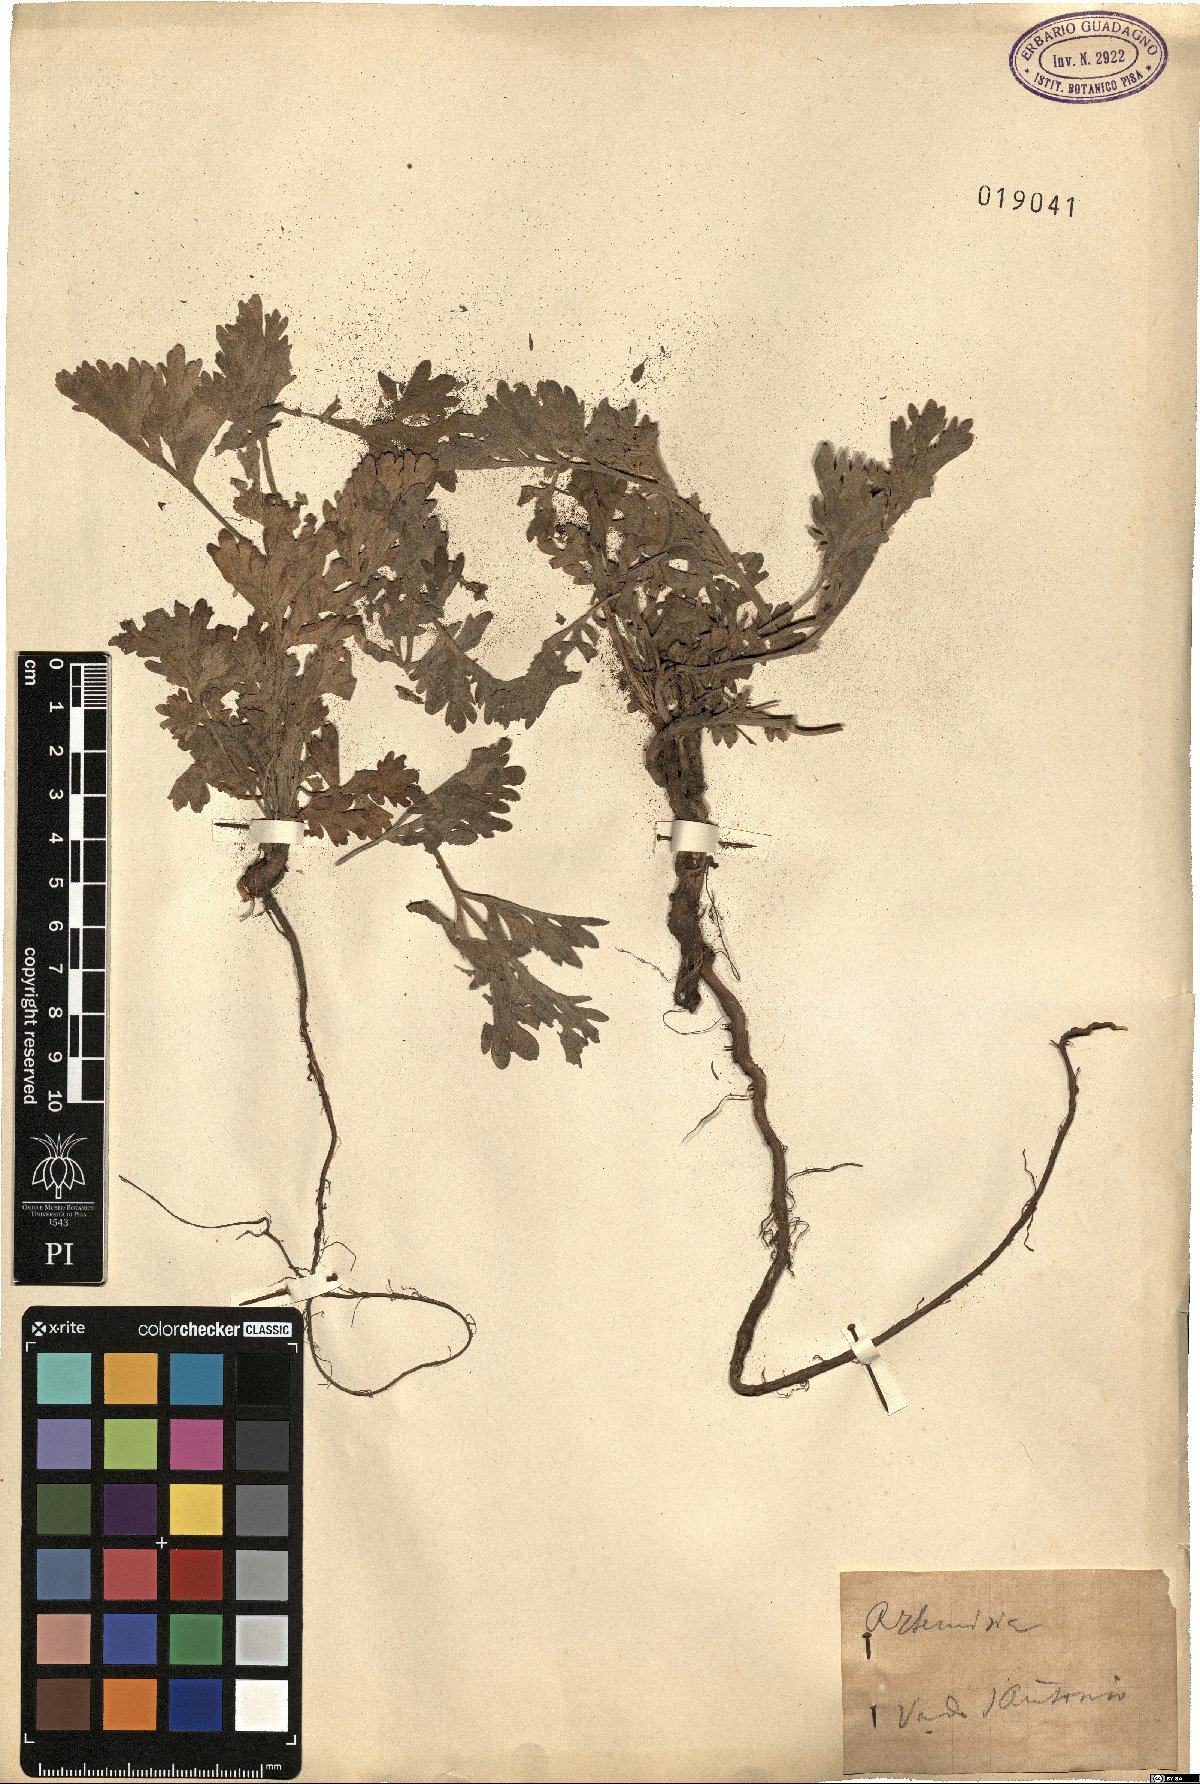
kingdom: Plantae
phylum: Tracheophyta
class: Magnoliopsida
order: Asterales
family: Asteraceae
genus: Artemisia
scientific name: Artemisia
